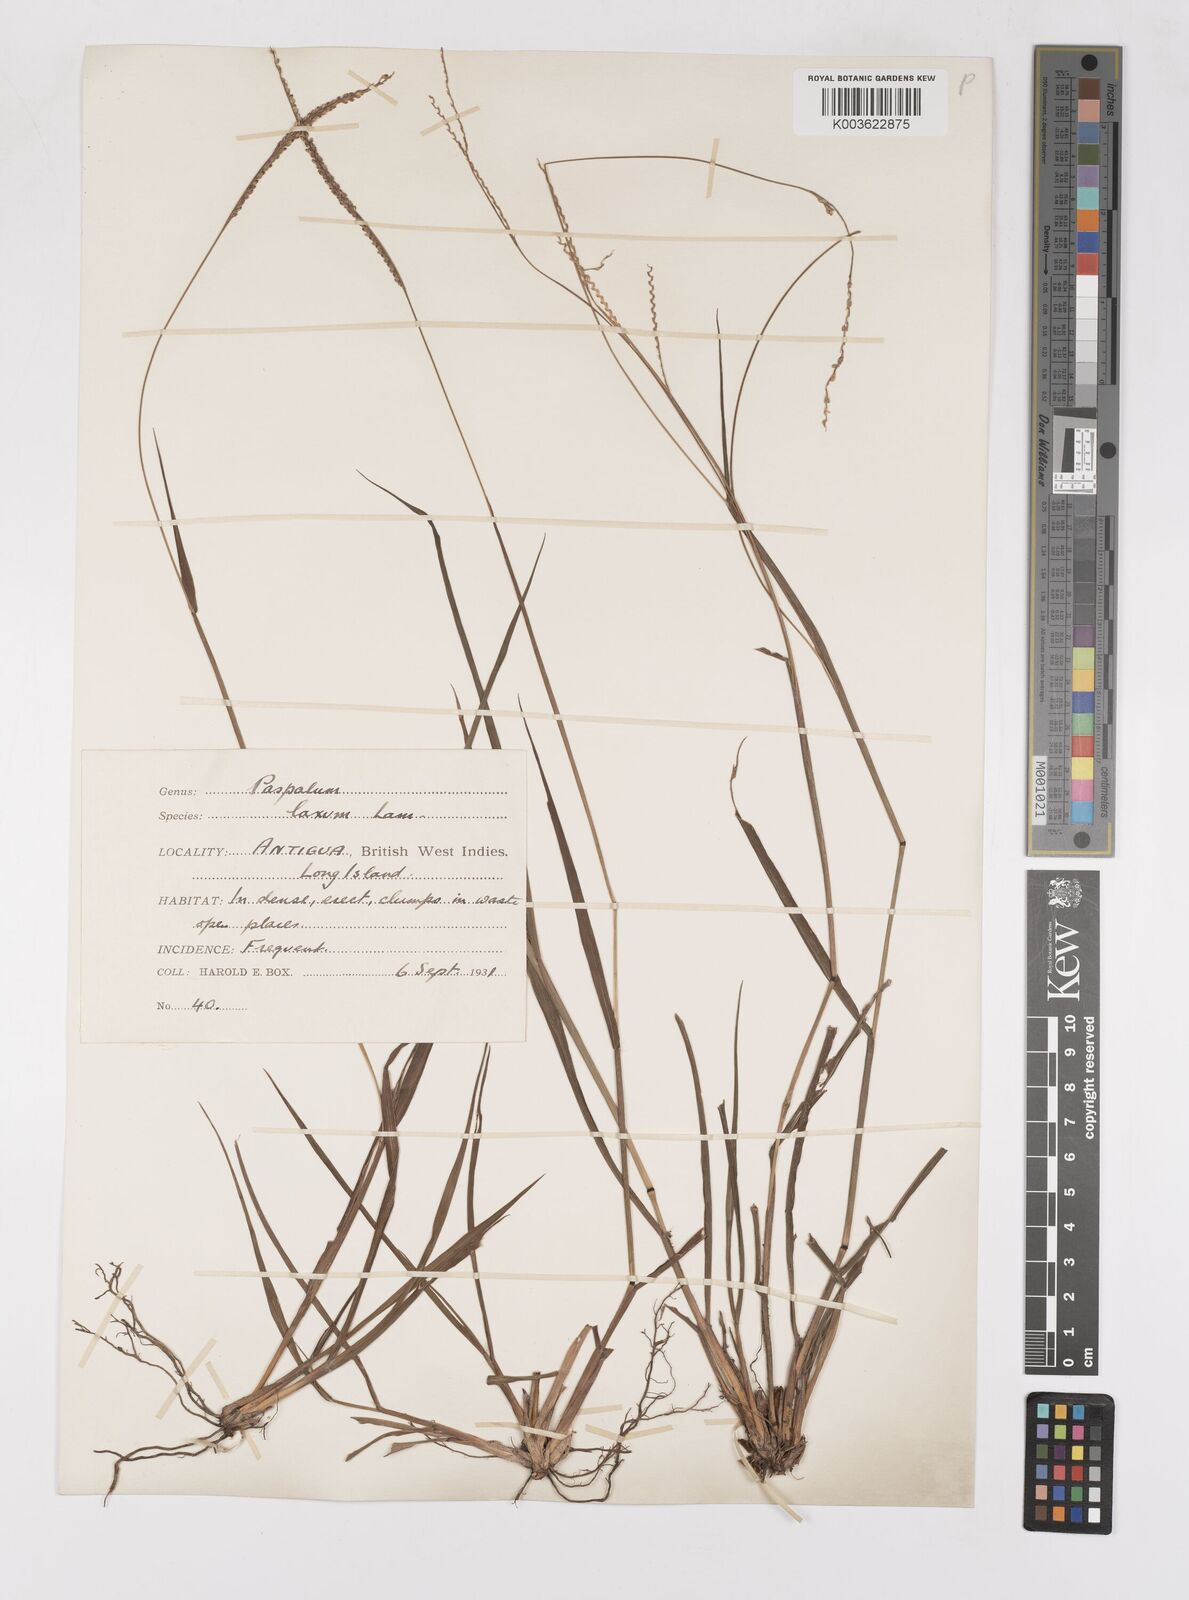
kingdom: Plantae
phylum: Tracheophyta
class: Liliopsida
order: Poales
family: Poaceae
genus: Paspalum
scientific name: Paspalum laxum
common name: Coconut paspalum
